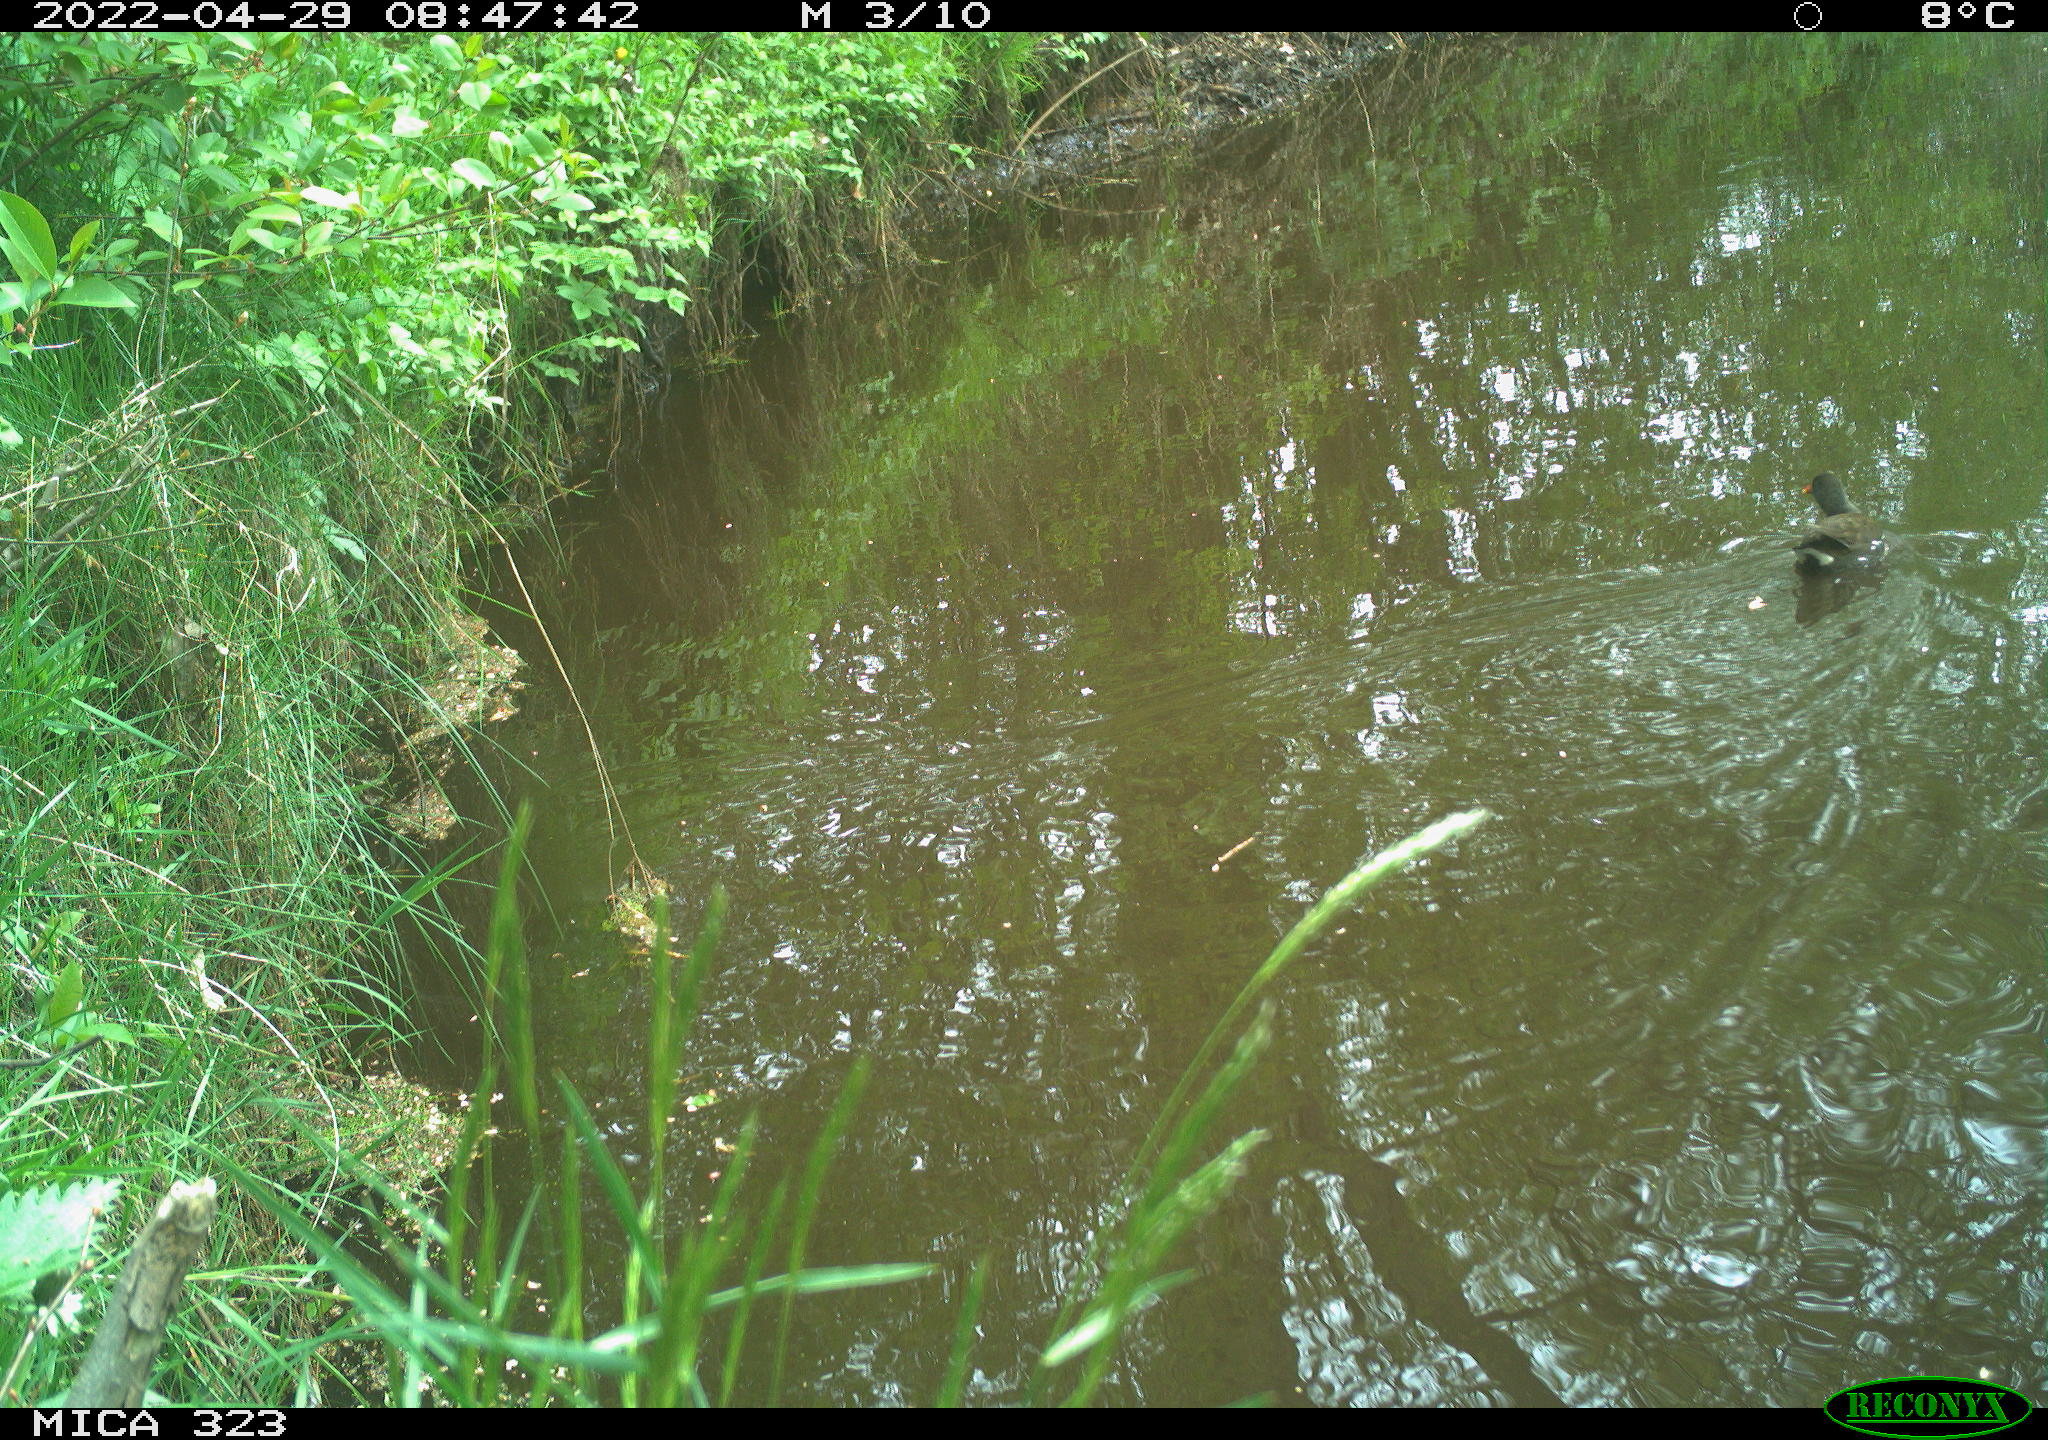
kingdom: Animalia
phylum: Chordata
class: Aves
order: Gruiformes
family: Rallidae
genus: Gallinula
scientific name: Gallinula chloropus
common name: Common moorhen
